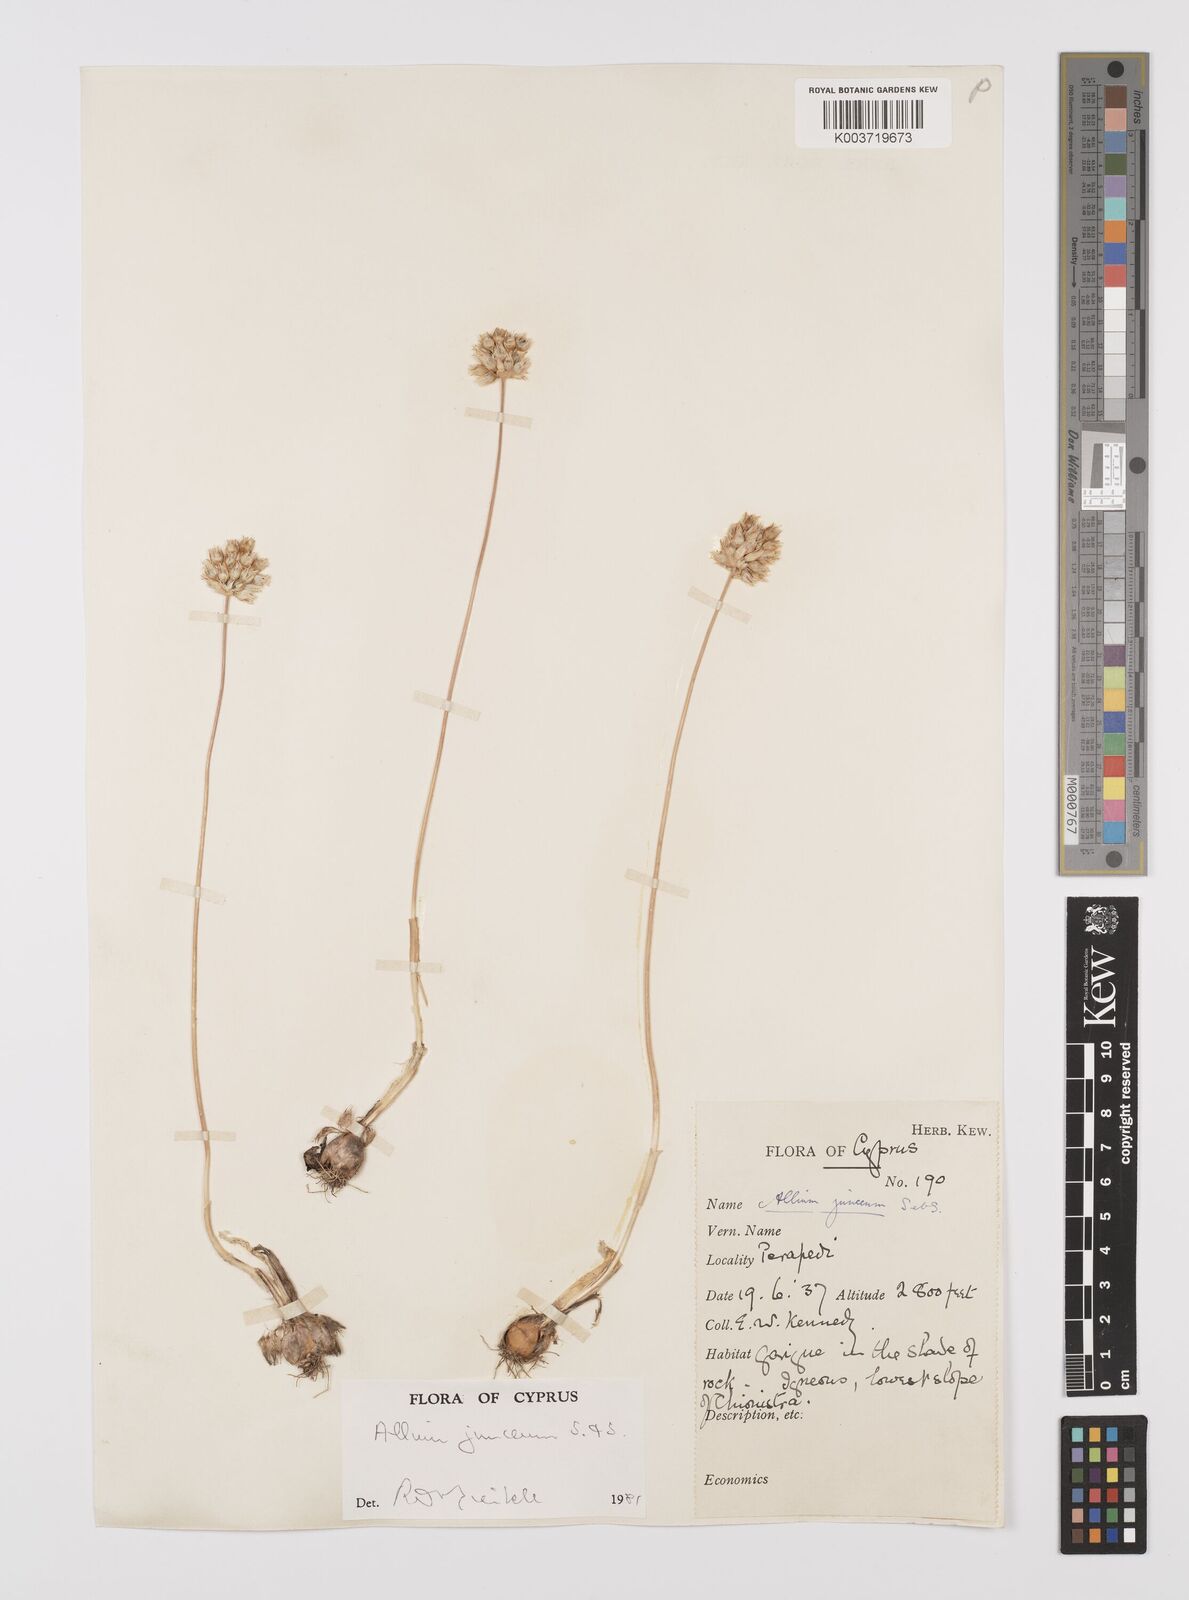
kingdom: Plantae
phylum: Tracheophyta
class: Liliopsida
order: Asparagales
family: Amaryllidaceae
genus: Allium
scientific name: Allium junceum
